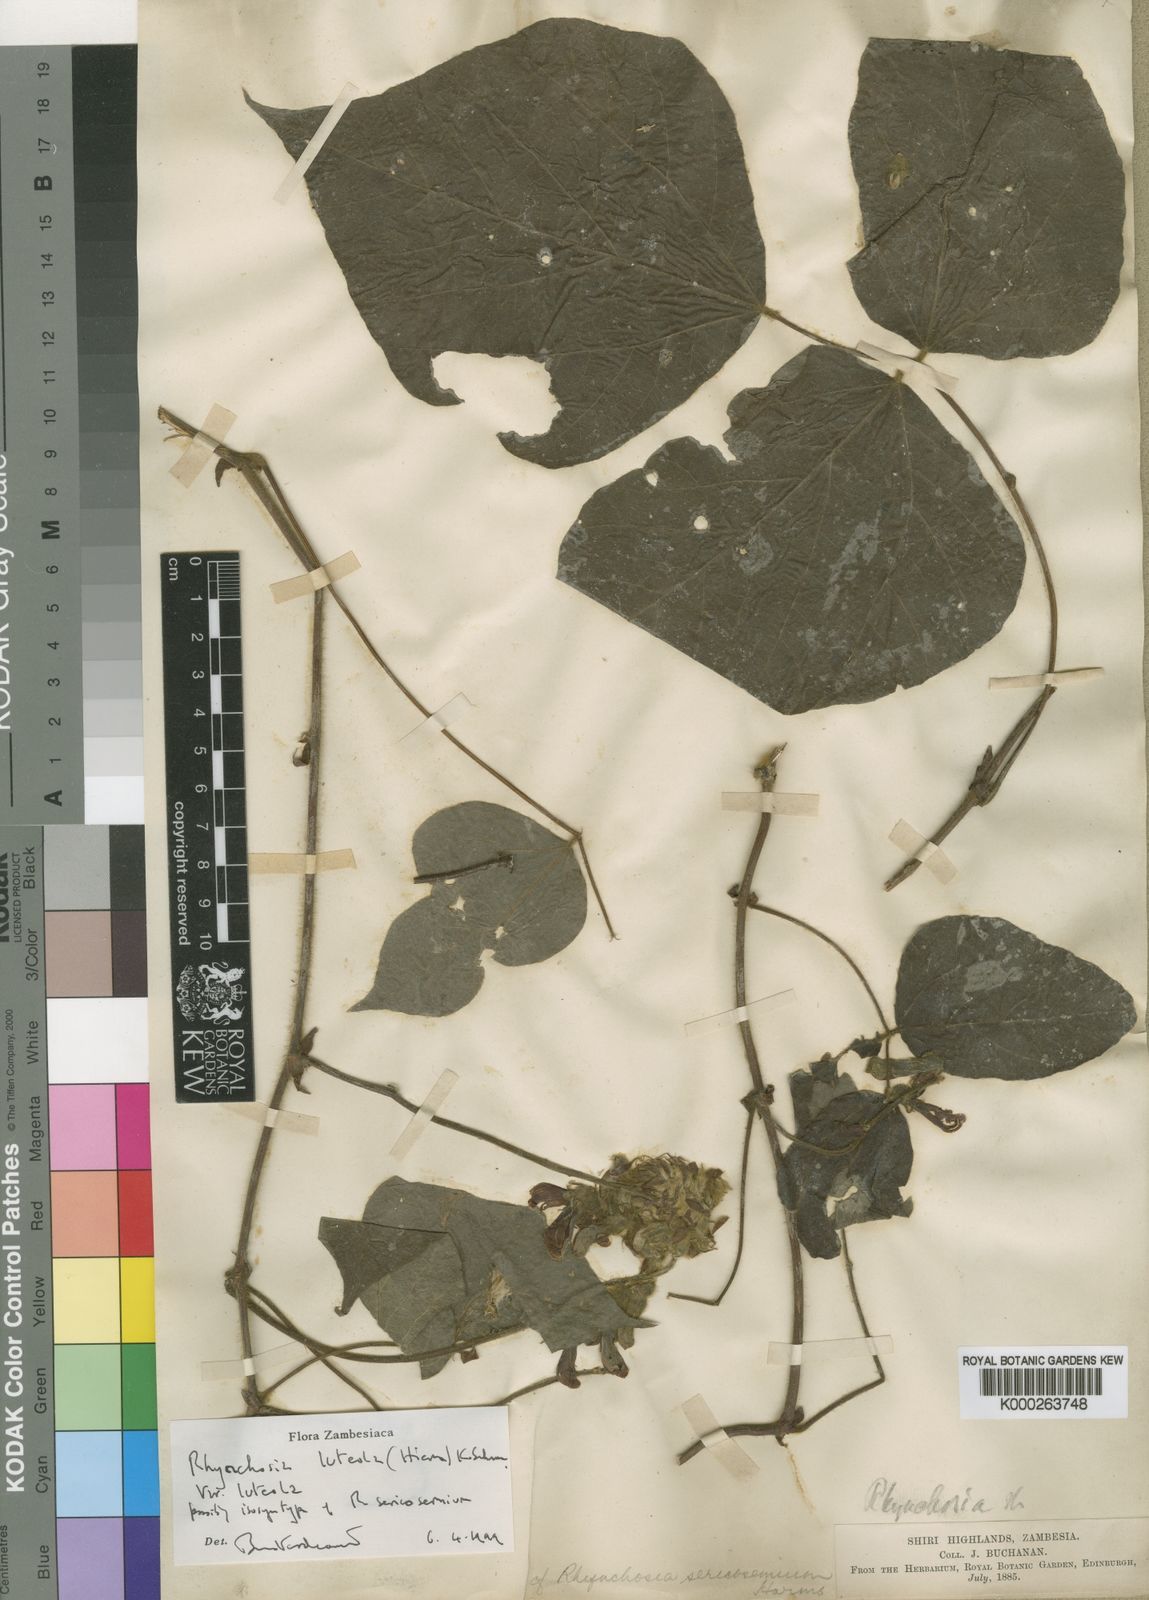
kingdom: Plantae
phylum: Tracheophyta
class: Magnoliopsida
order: Fabales
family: Fabaceae
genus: Rhynchosia
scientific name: Rhynchosia luteola
